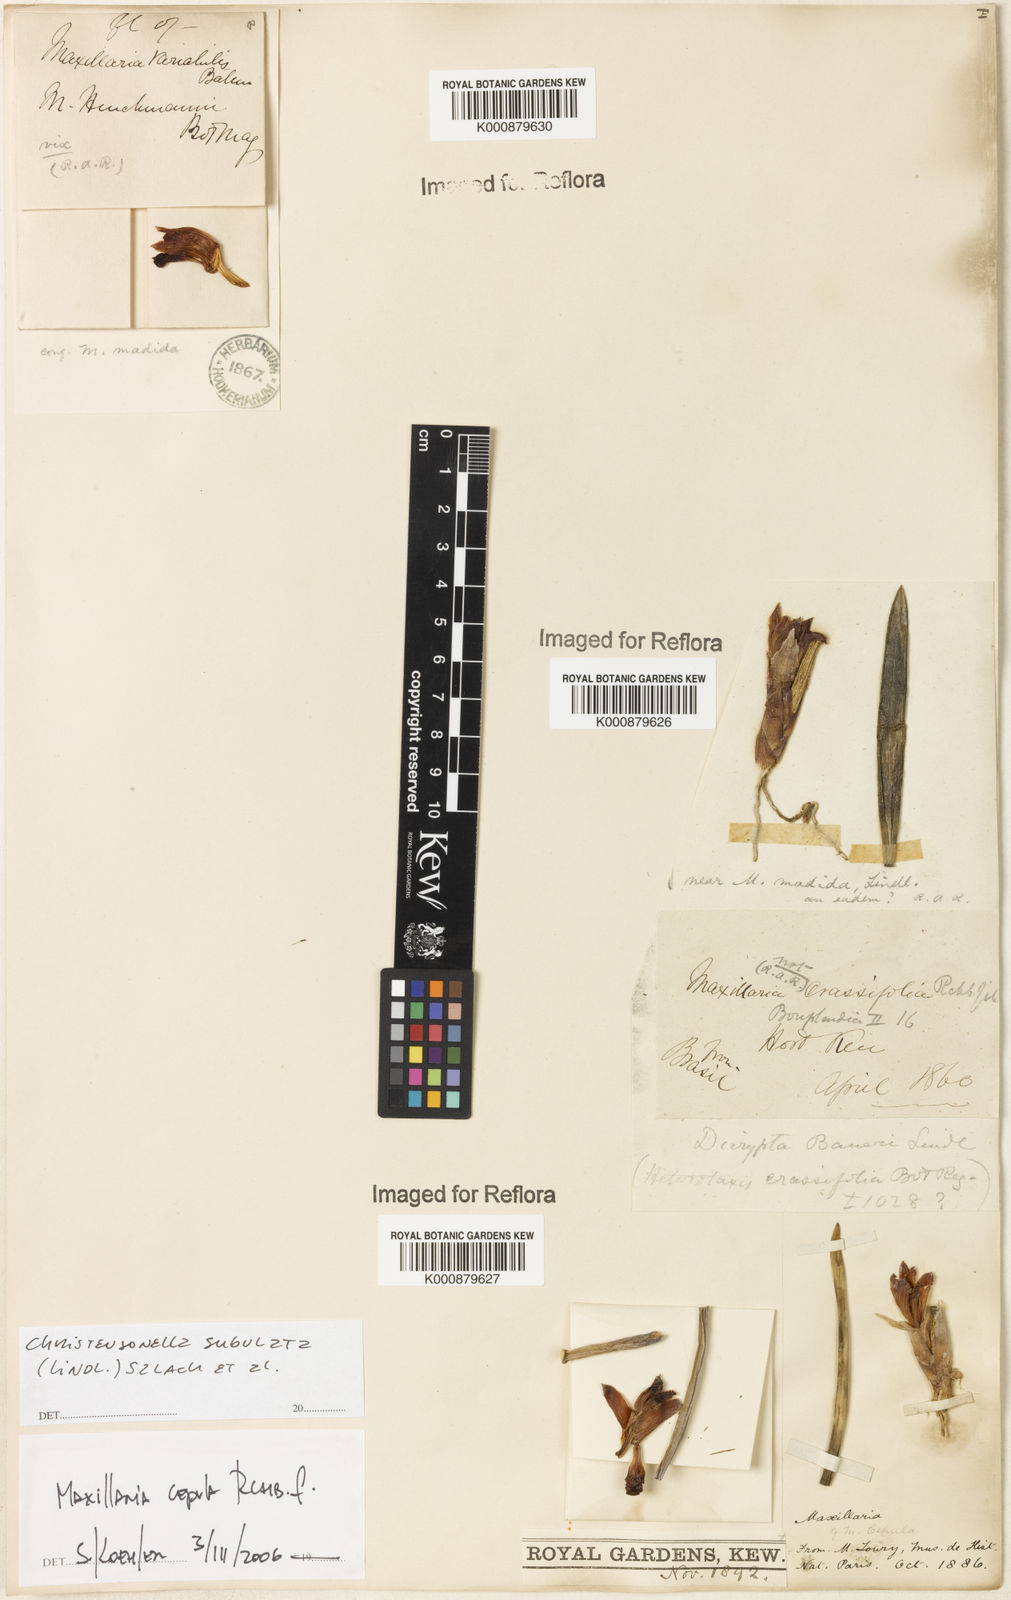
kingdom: Plantae
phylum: Tracheophyta
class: Liliopsida
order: Asparagales
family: Orchidaceae
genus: Maxillaria
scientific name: Maxillaria subulata
